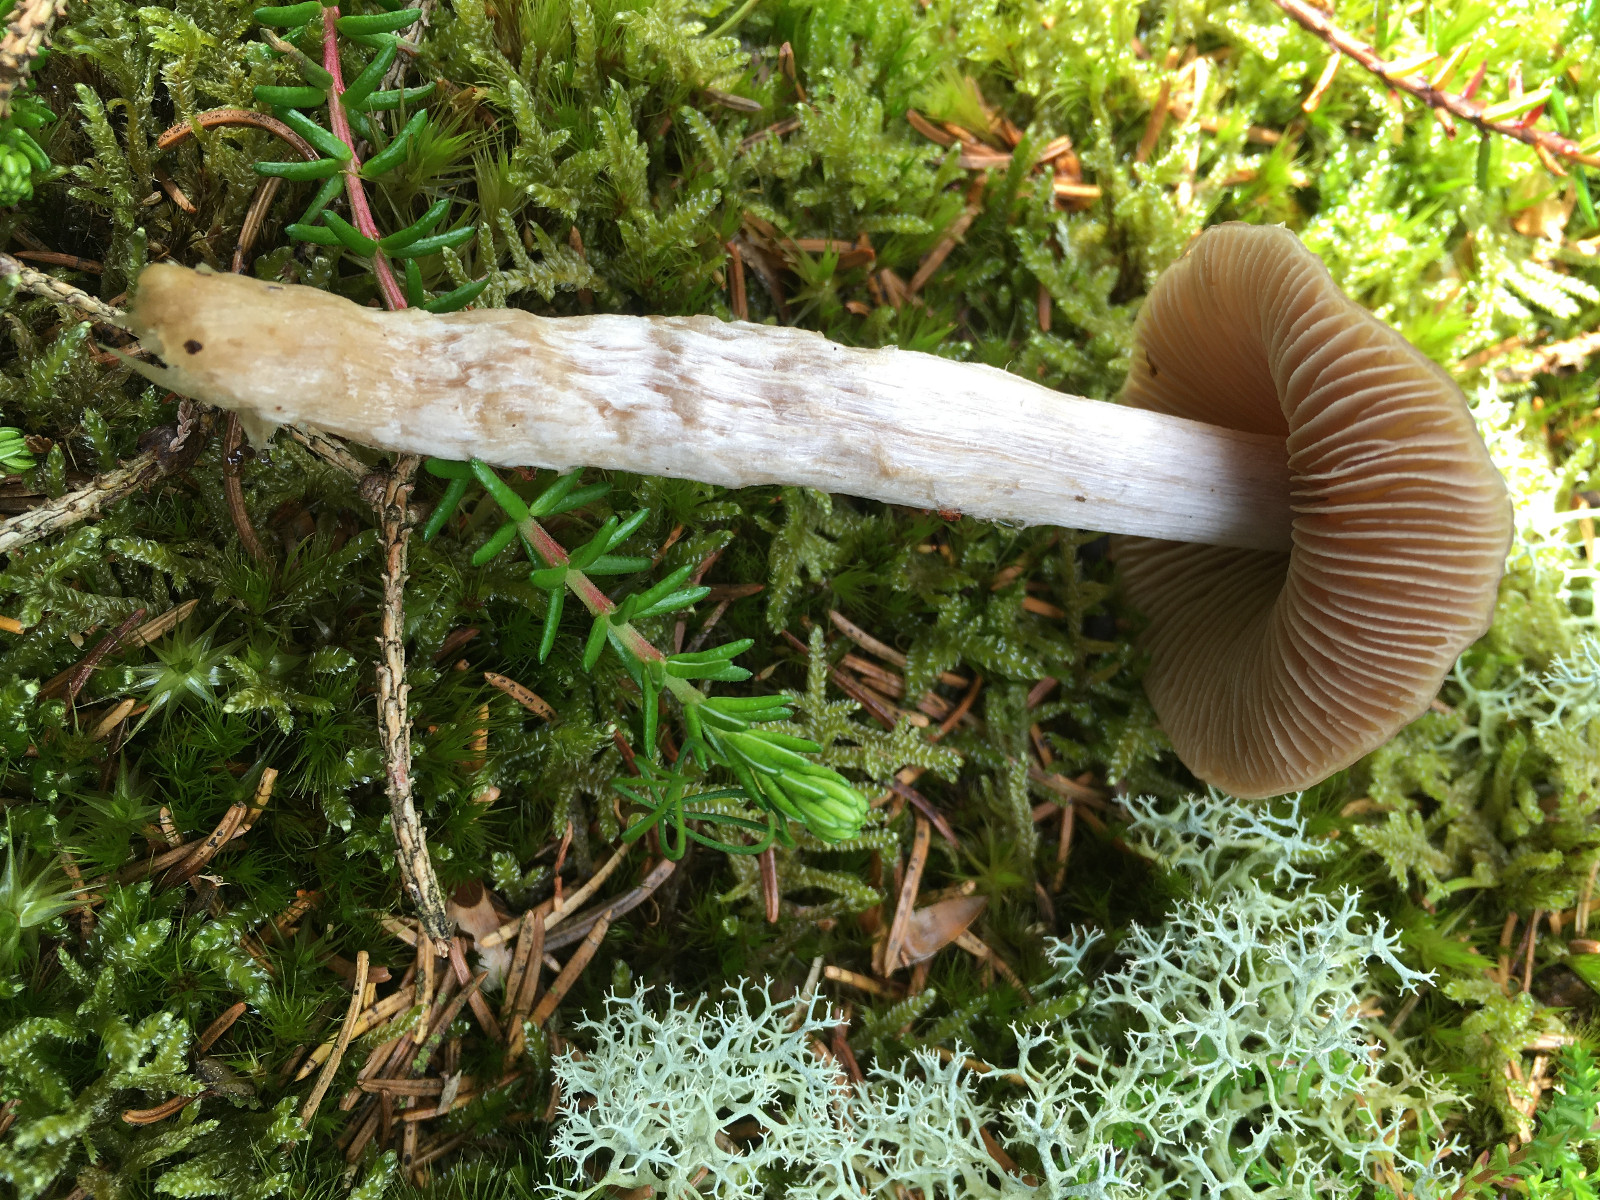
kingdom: Fungi
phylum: Basidiomycota
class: Agaricomycetes
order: Agaricales
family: Cortinariaceae
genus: Cortinarius
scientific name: Cortinarius stillatitius
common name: honningduftende slørhat
